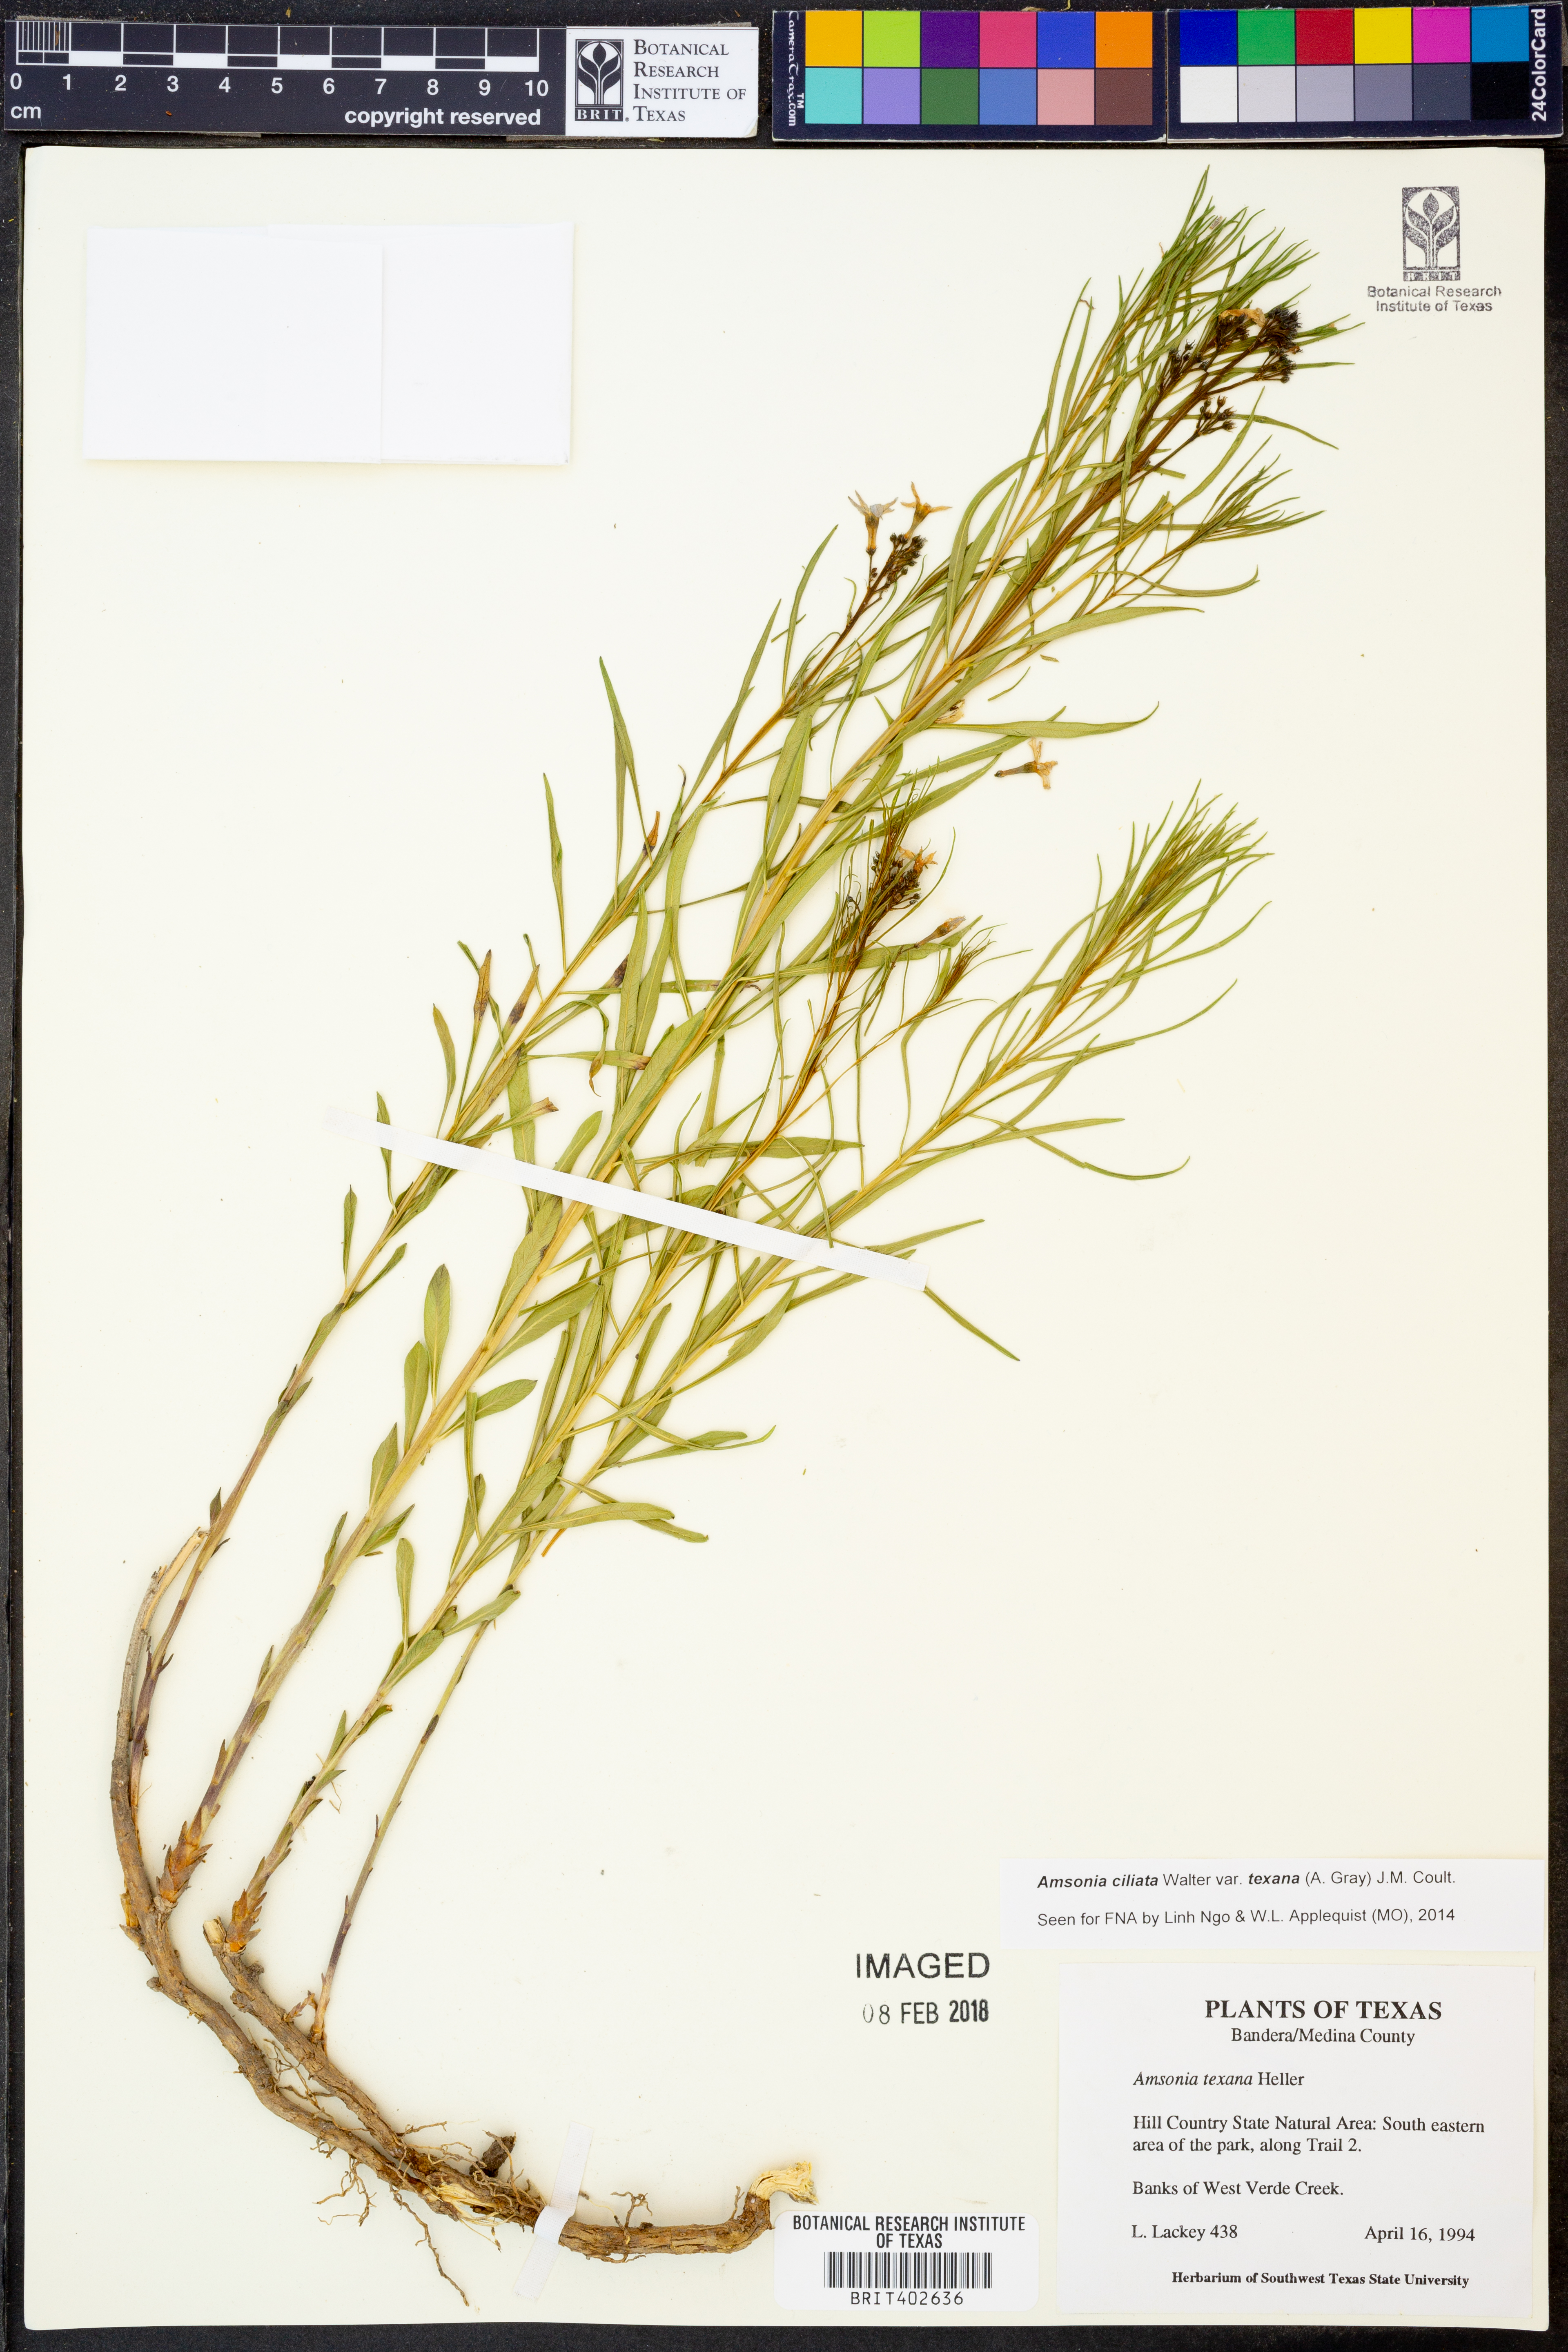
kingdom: Plantae
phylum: Tracheophyta
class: Magnoliopsida
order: Gentianales
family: Apocynaceae
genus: Amsonia
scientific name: Amsonia ciliata
